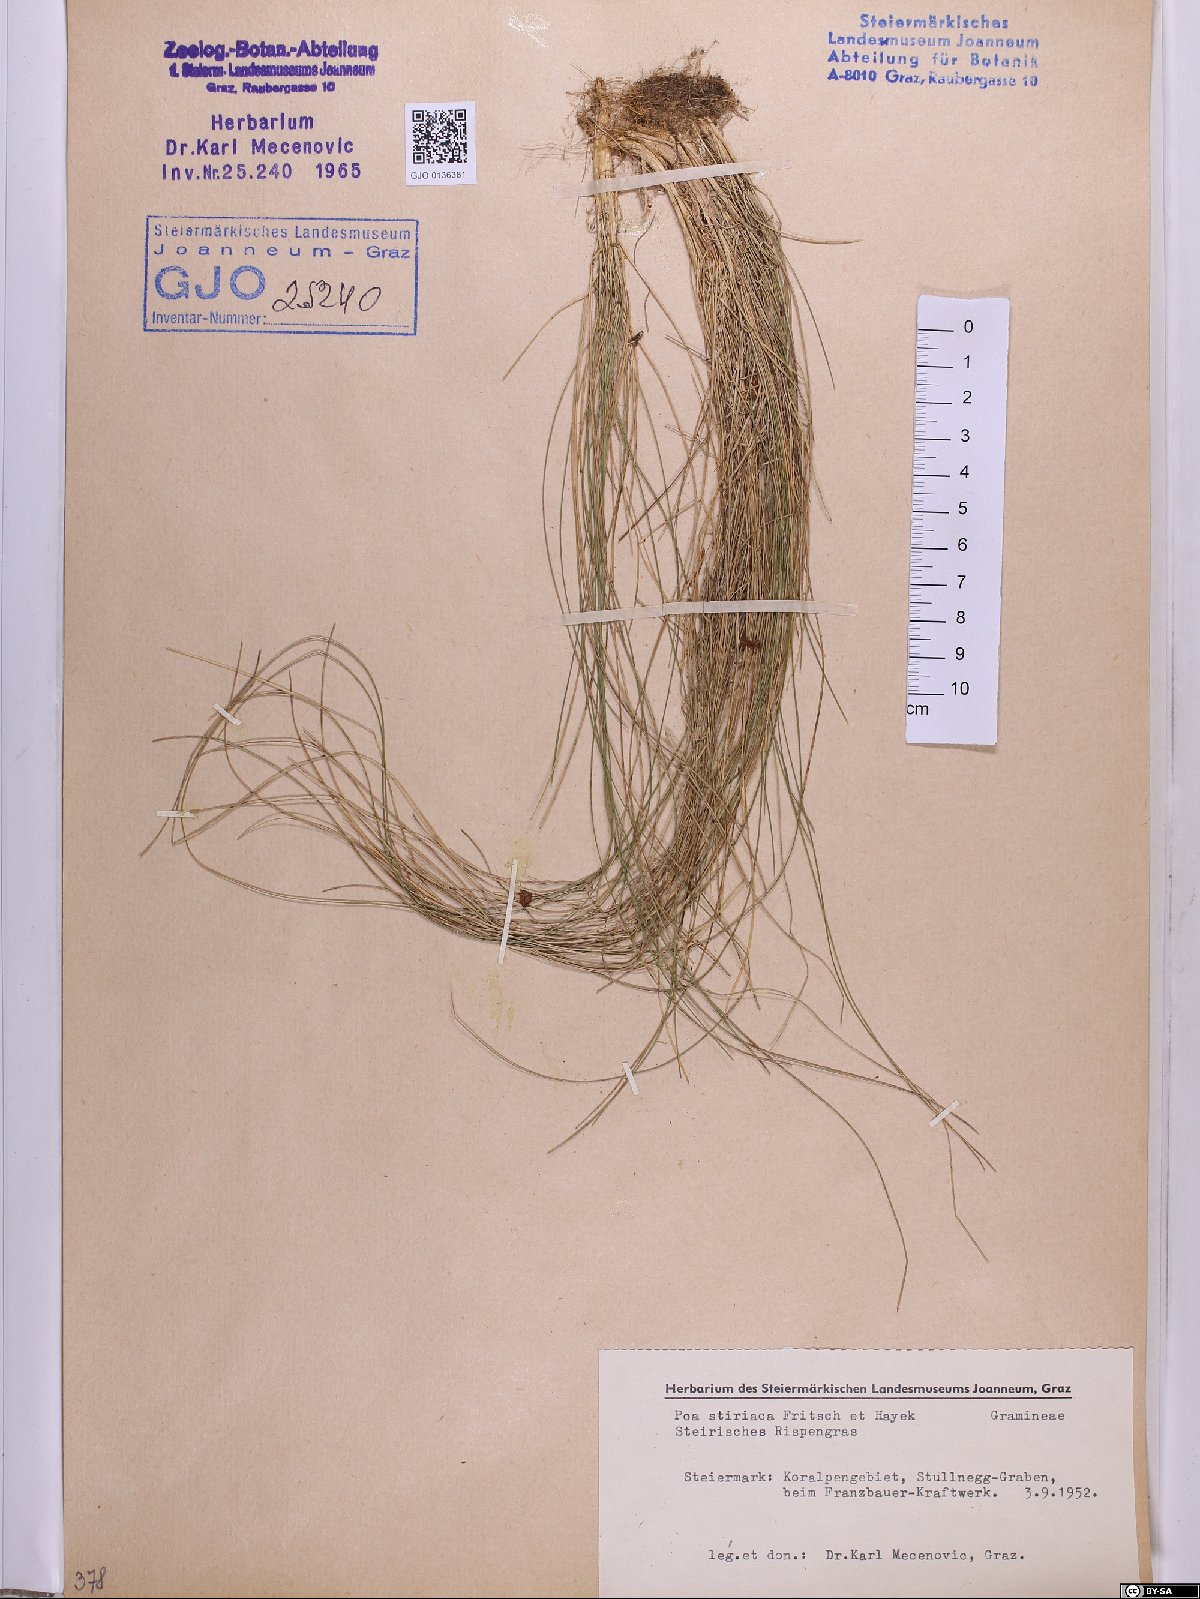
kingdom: Plantae
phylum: Tracheophyta
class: Liliopsida
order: Poales
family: Poaceae
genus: Poa
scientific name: Poa stiriaca
